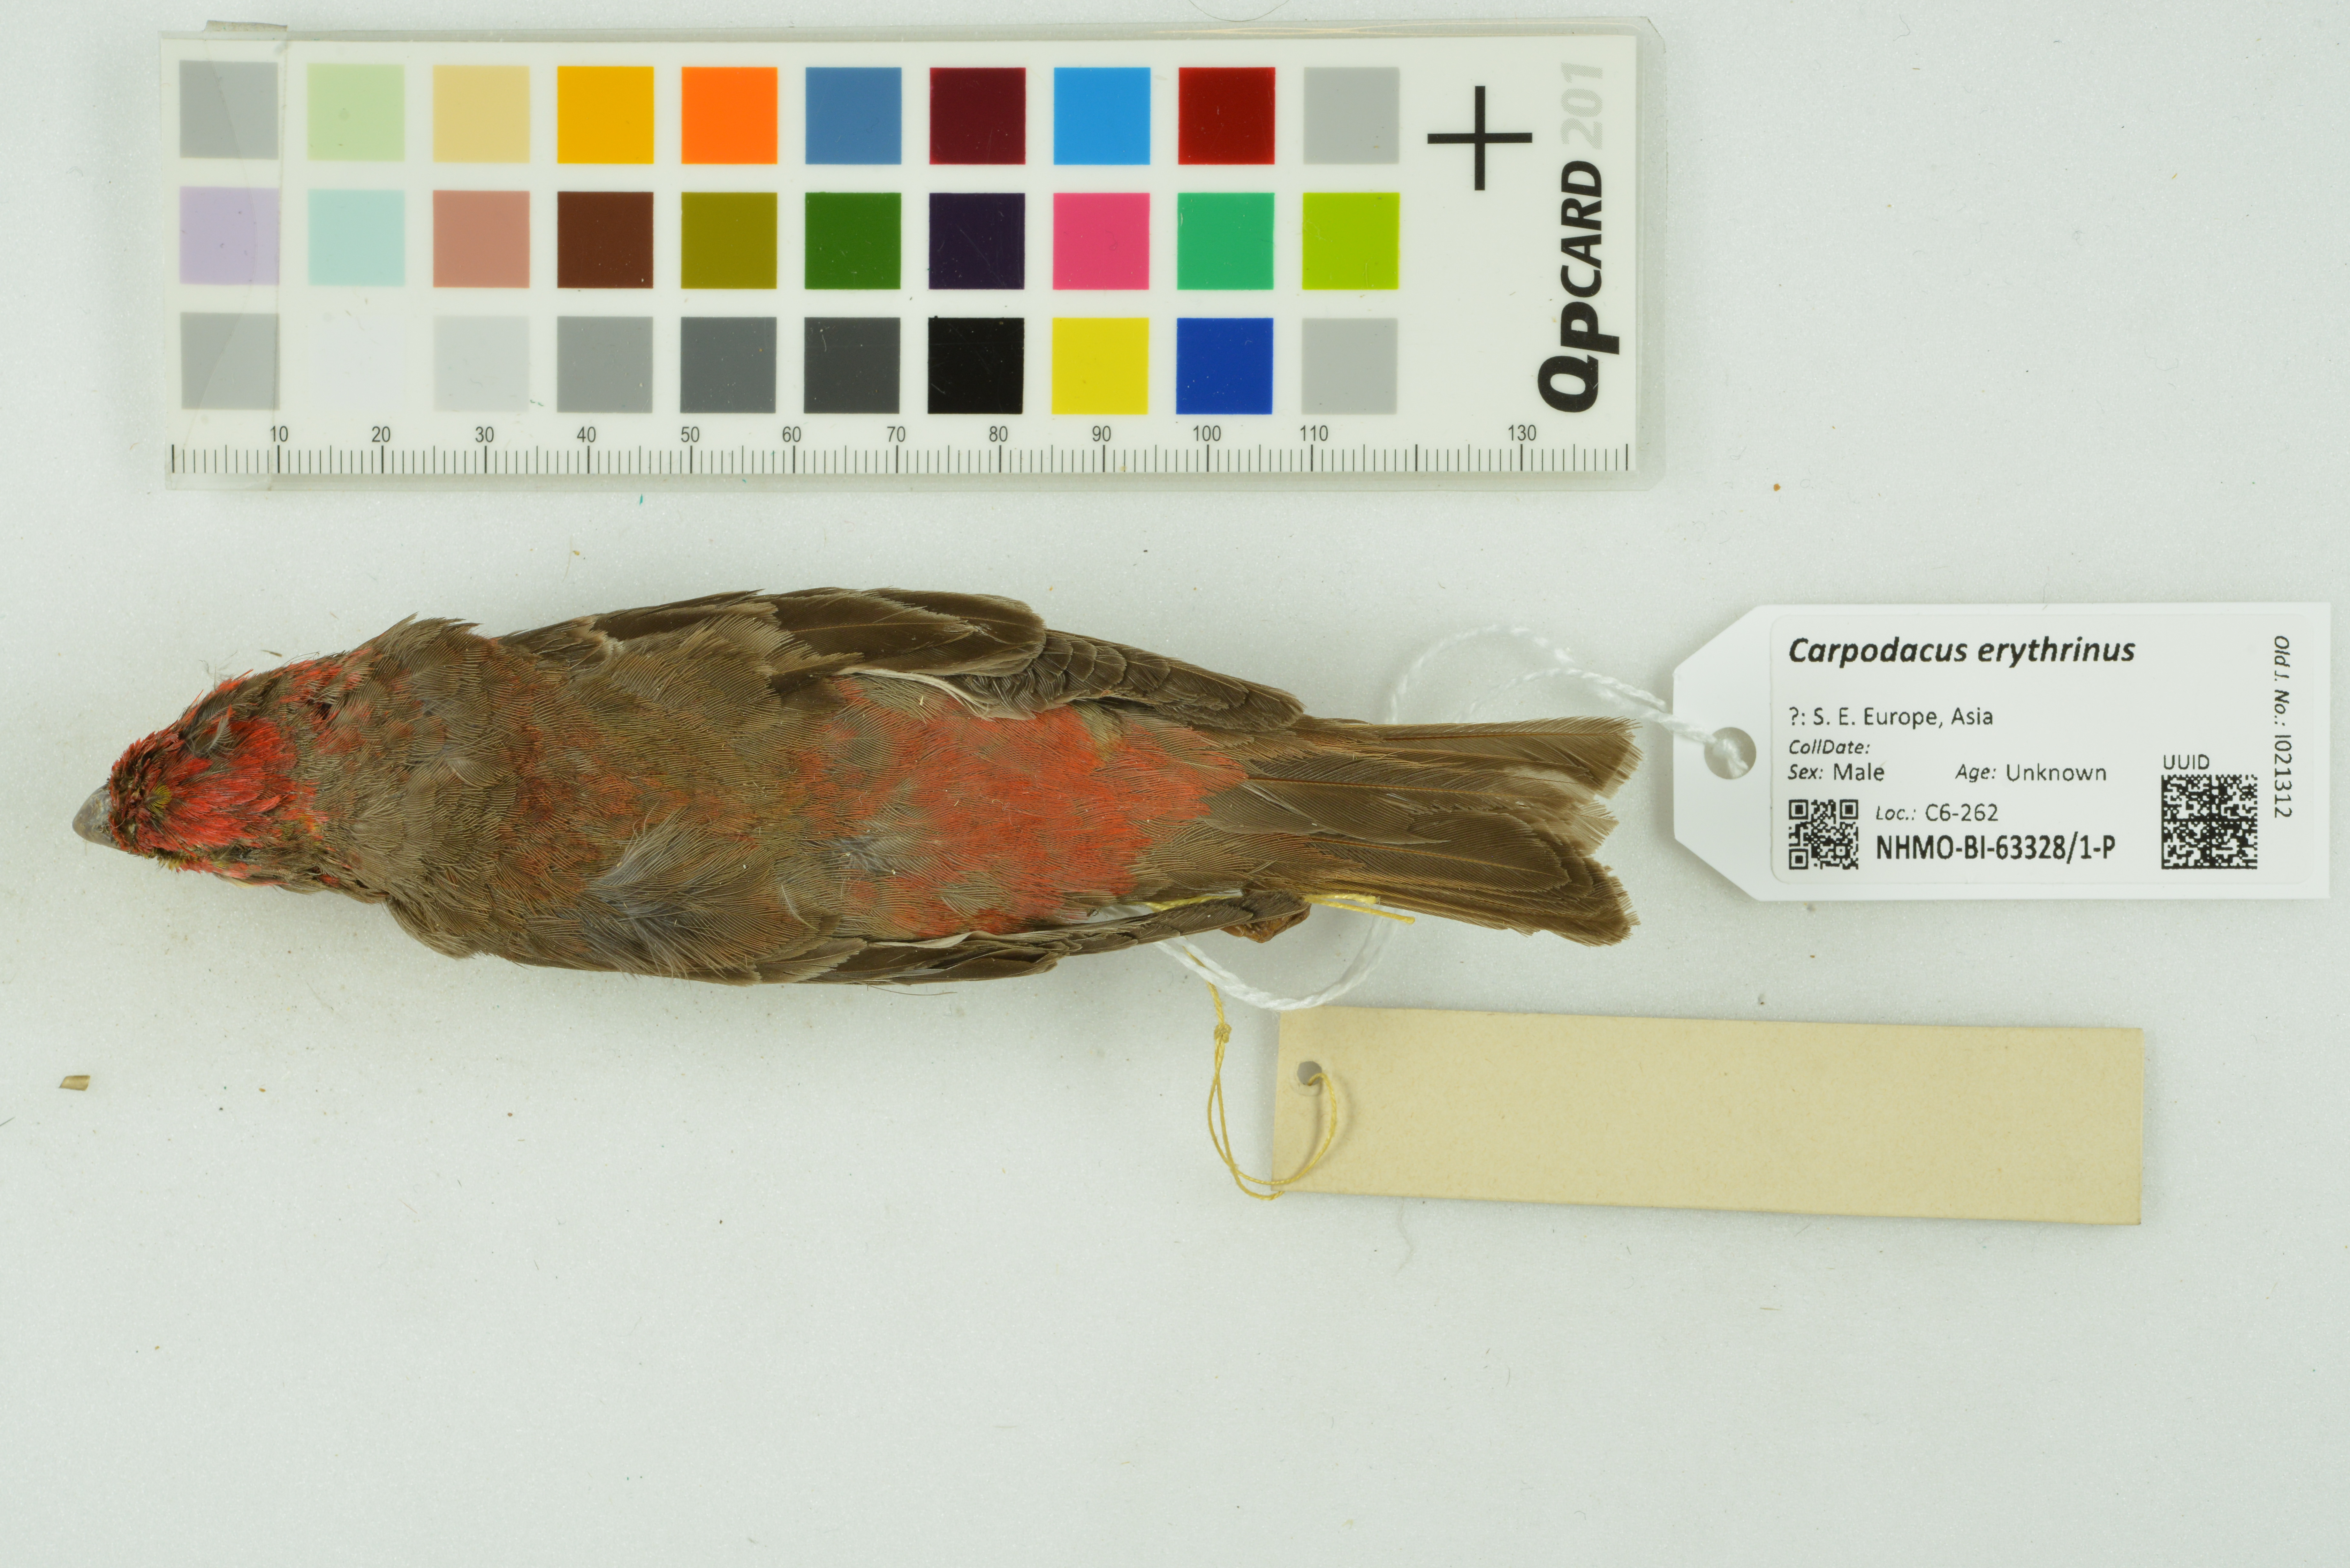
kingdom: Animalia
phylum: Chordata
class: Aves
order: Passeriformes
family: Fringillidae
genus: Carpodacus
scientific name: Carpodacus erythrinus
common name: Common rosefinch
